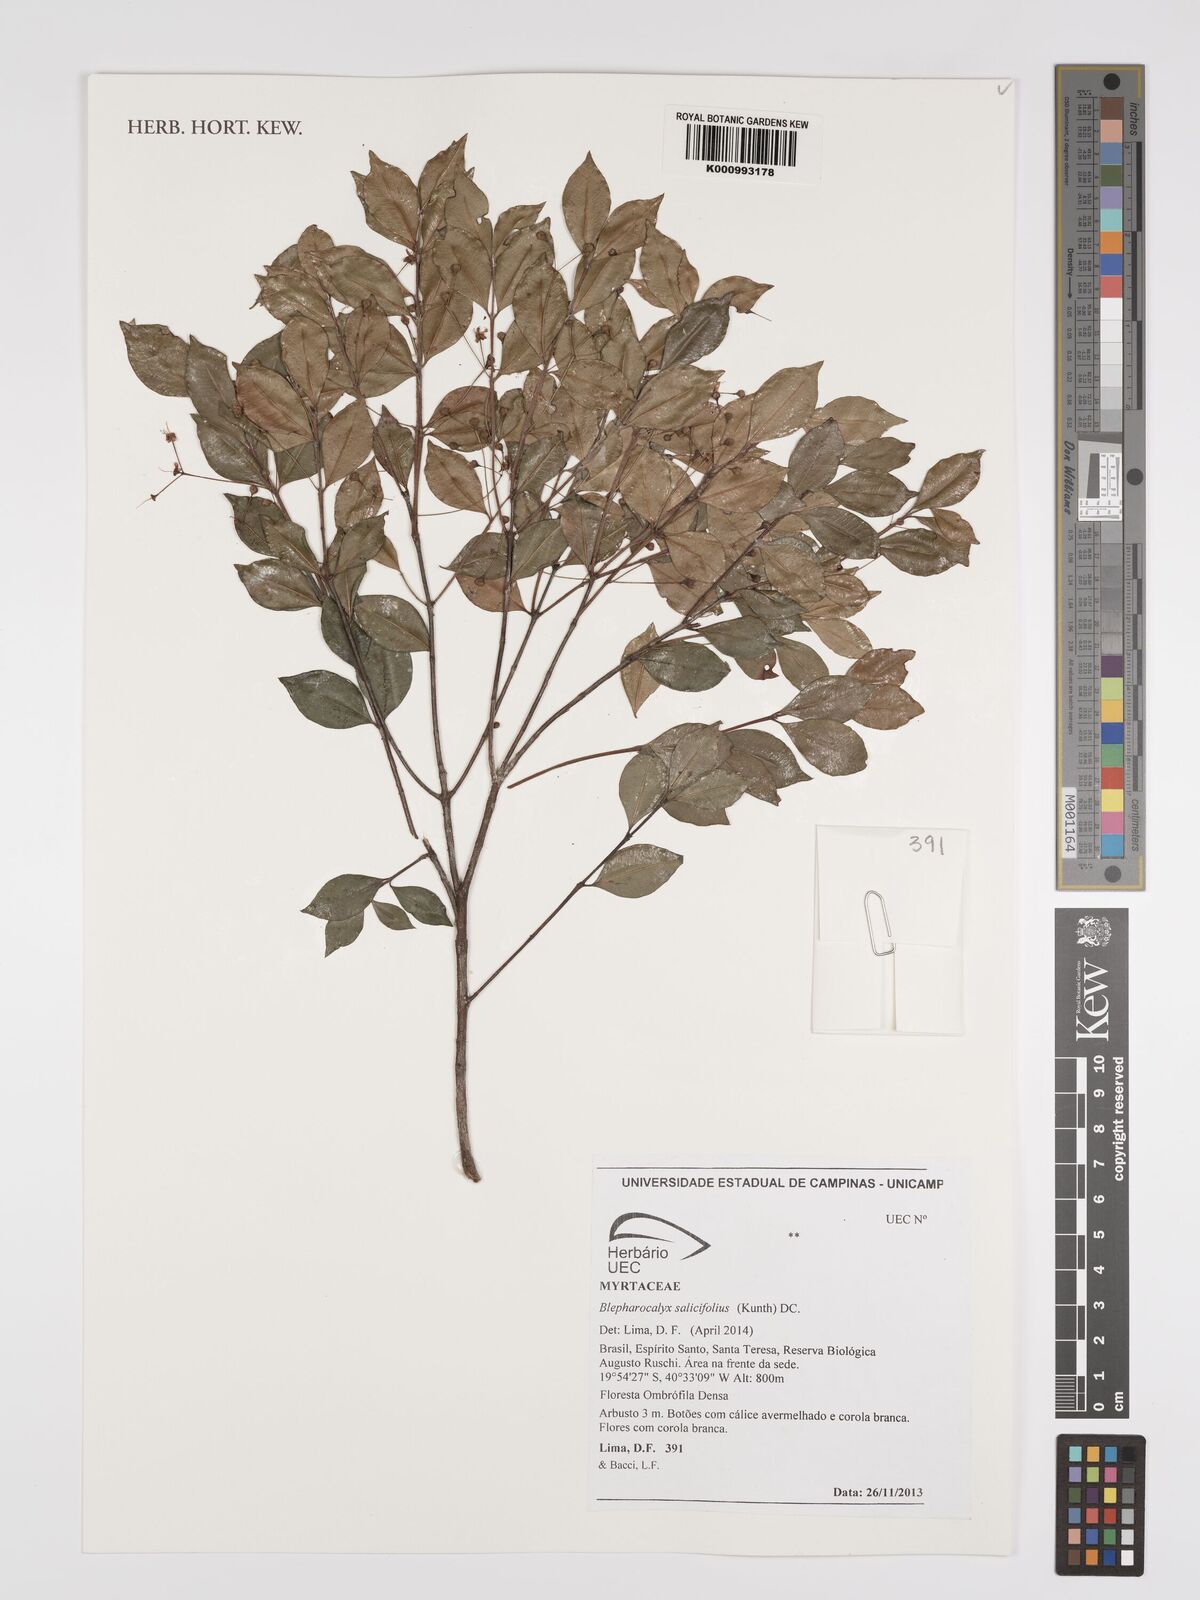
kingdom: Plantae
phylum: Tracheophyta
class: Magnoliopsida
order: Myrtales
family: Myrtaceae
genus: Blepharocalyx
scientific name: Blepharocalyx salicifolius
